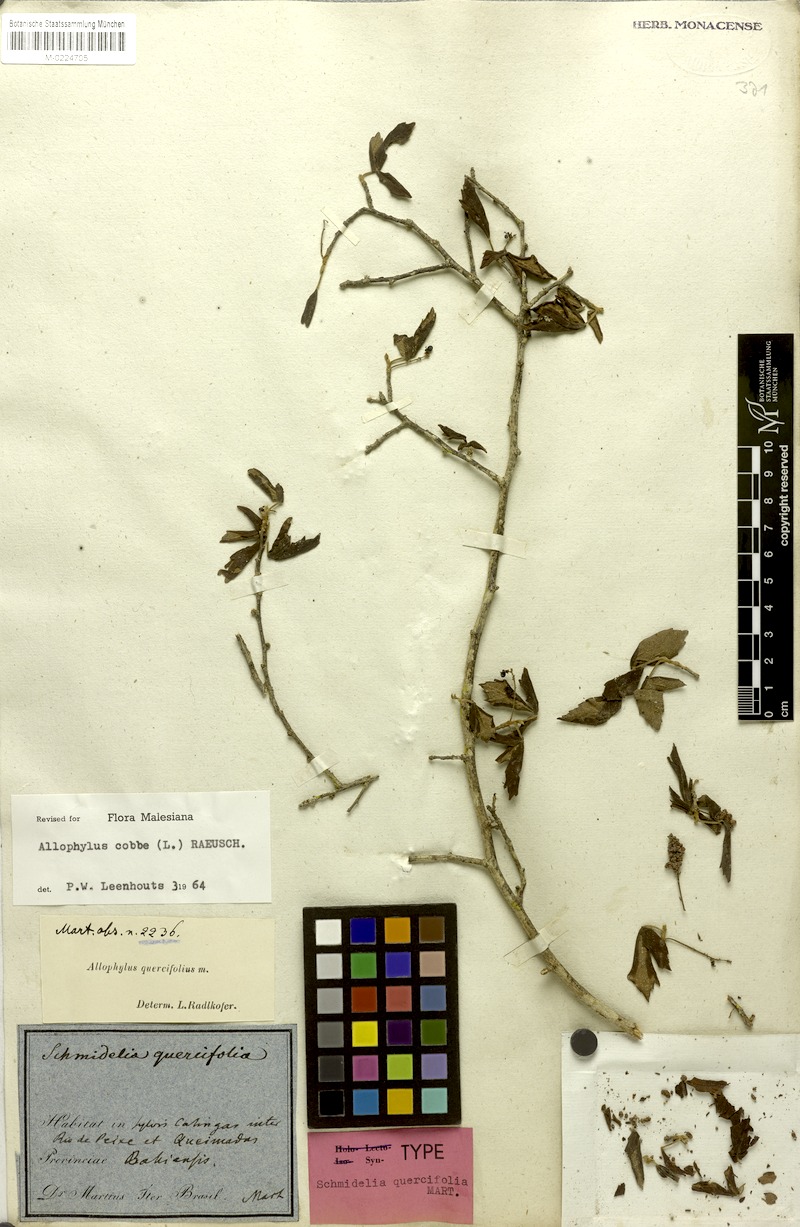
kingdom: Plantae
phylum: Tracheophyta
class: Magnoliopsida
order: Sapindales
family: Sapindaceae
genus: Allophylus
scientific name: Allophylus quercifolius
